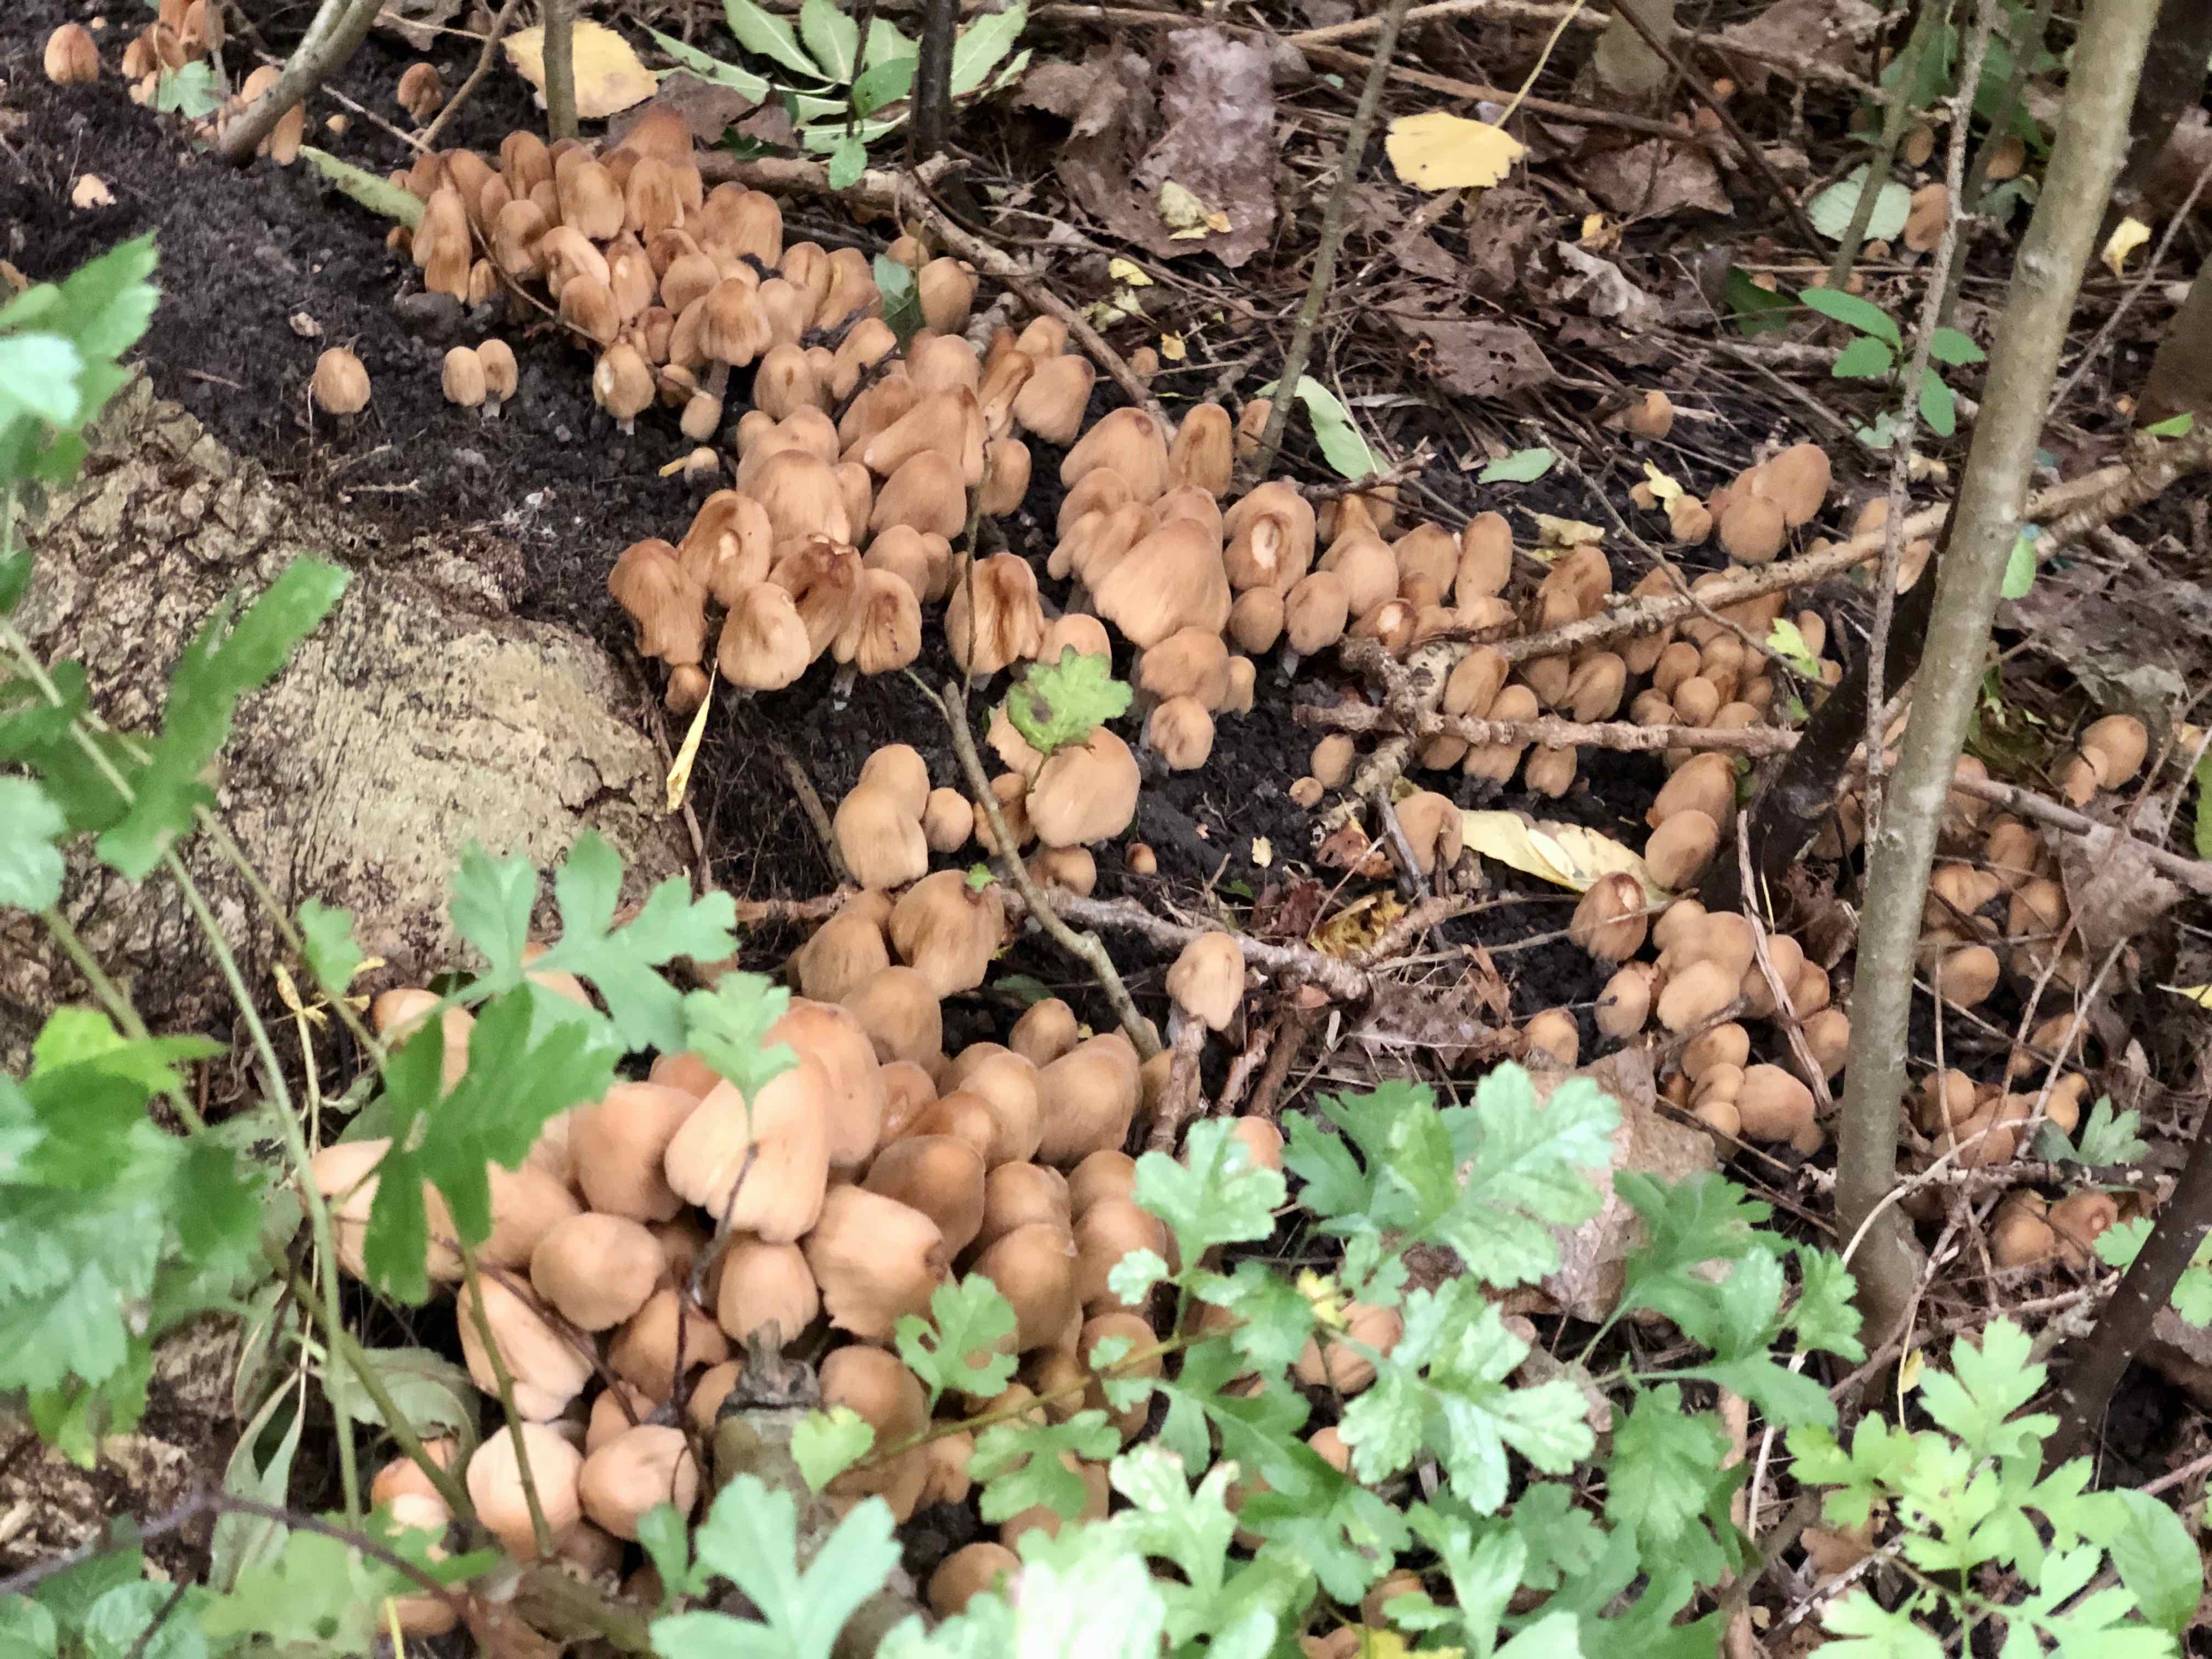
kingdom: Fungi
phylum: Basidiomycota
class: Agaricomycetes
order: Agaricales
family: Psathyrellaceae
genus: Coprinellus
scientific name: Coprinellus
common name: blækhat
